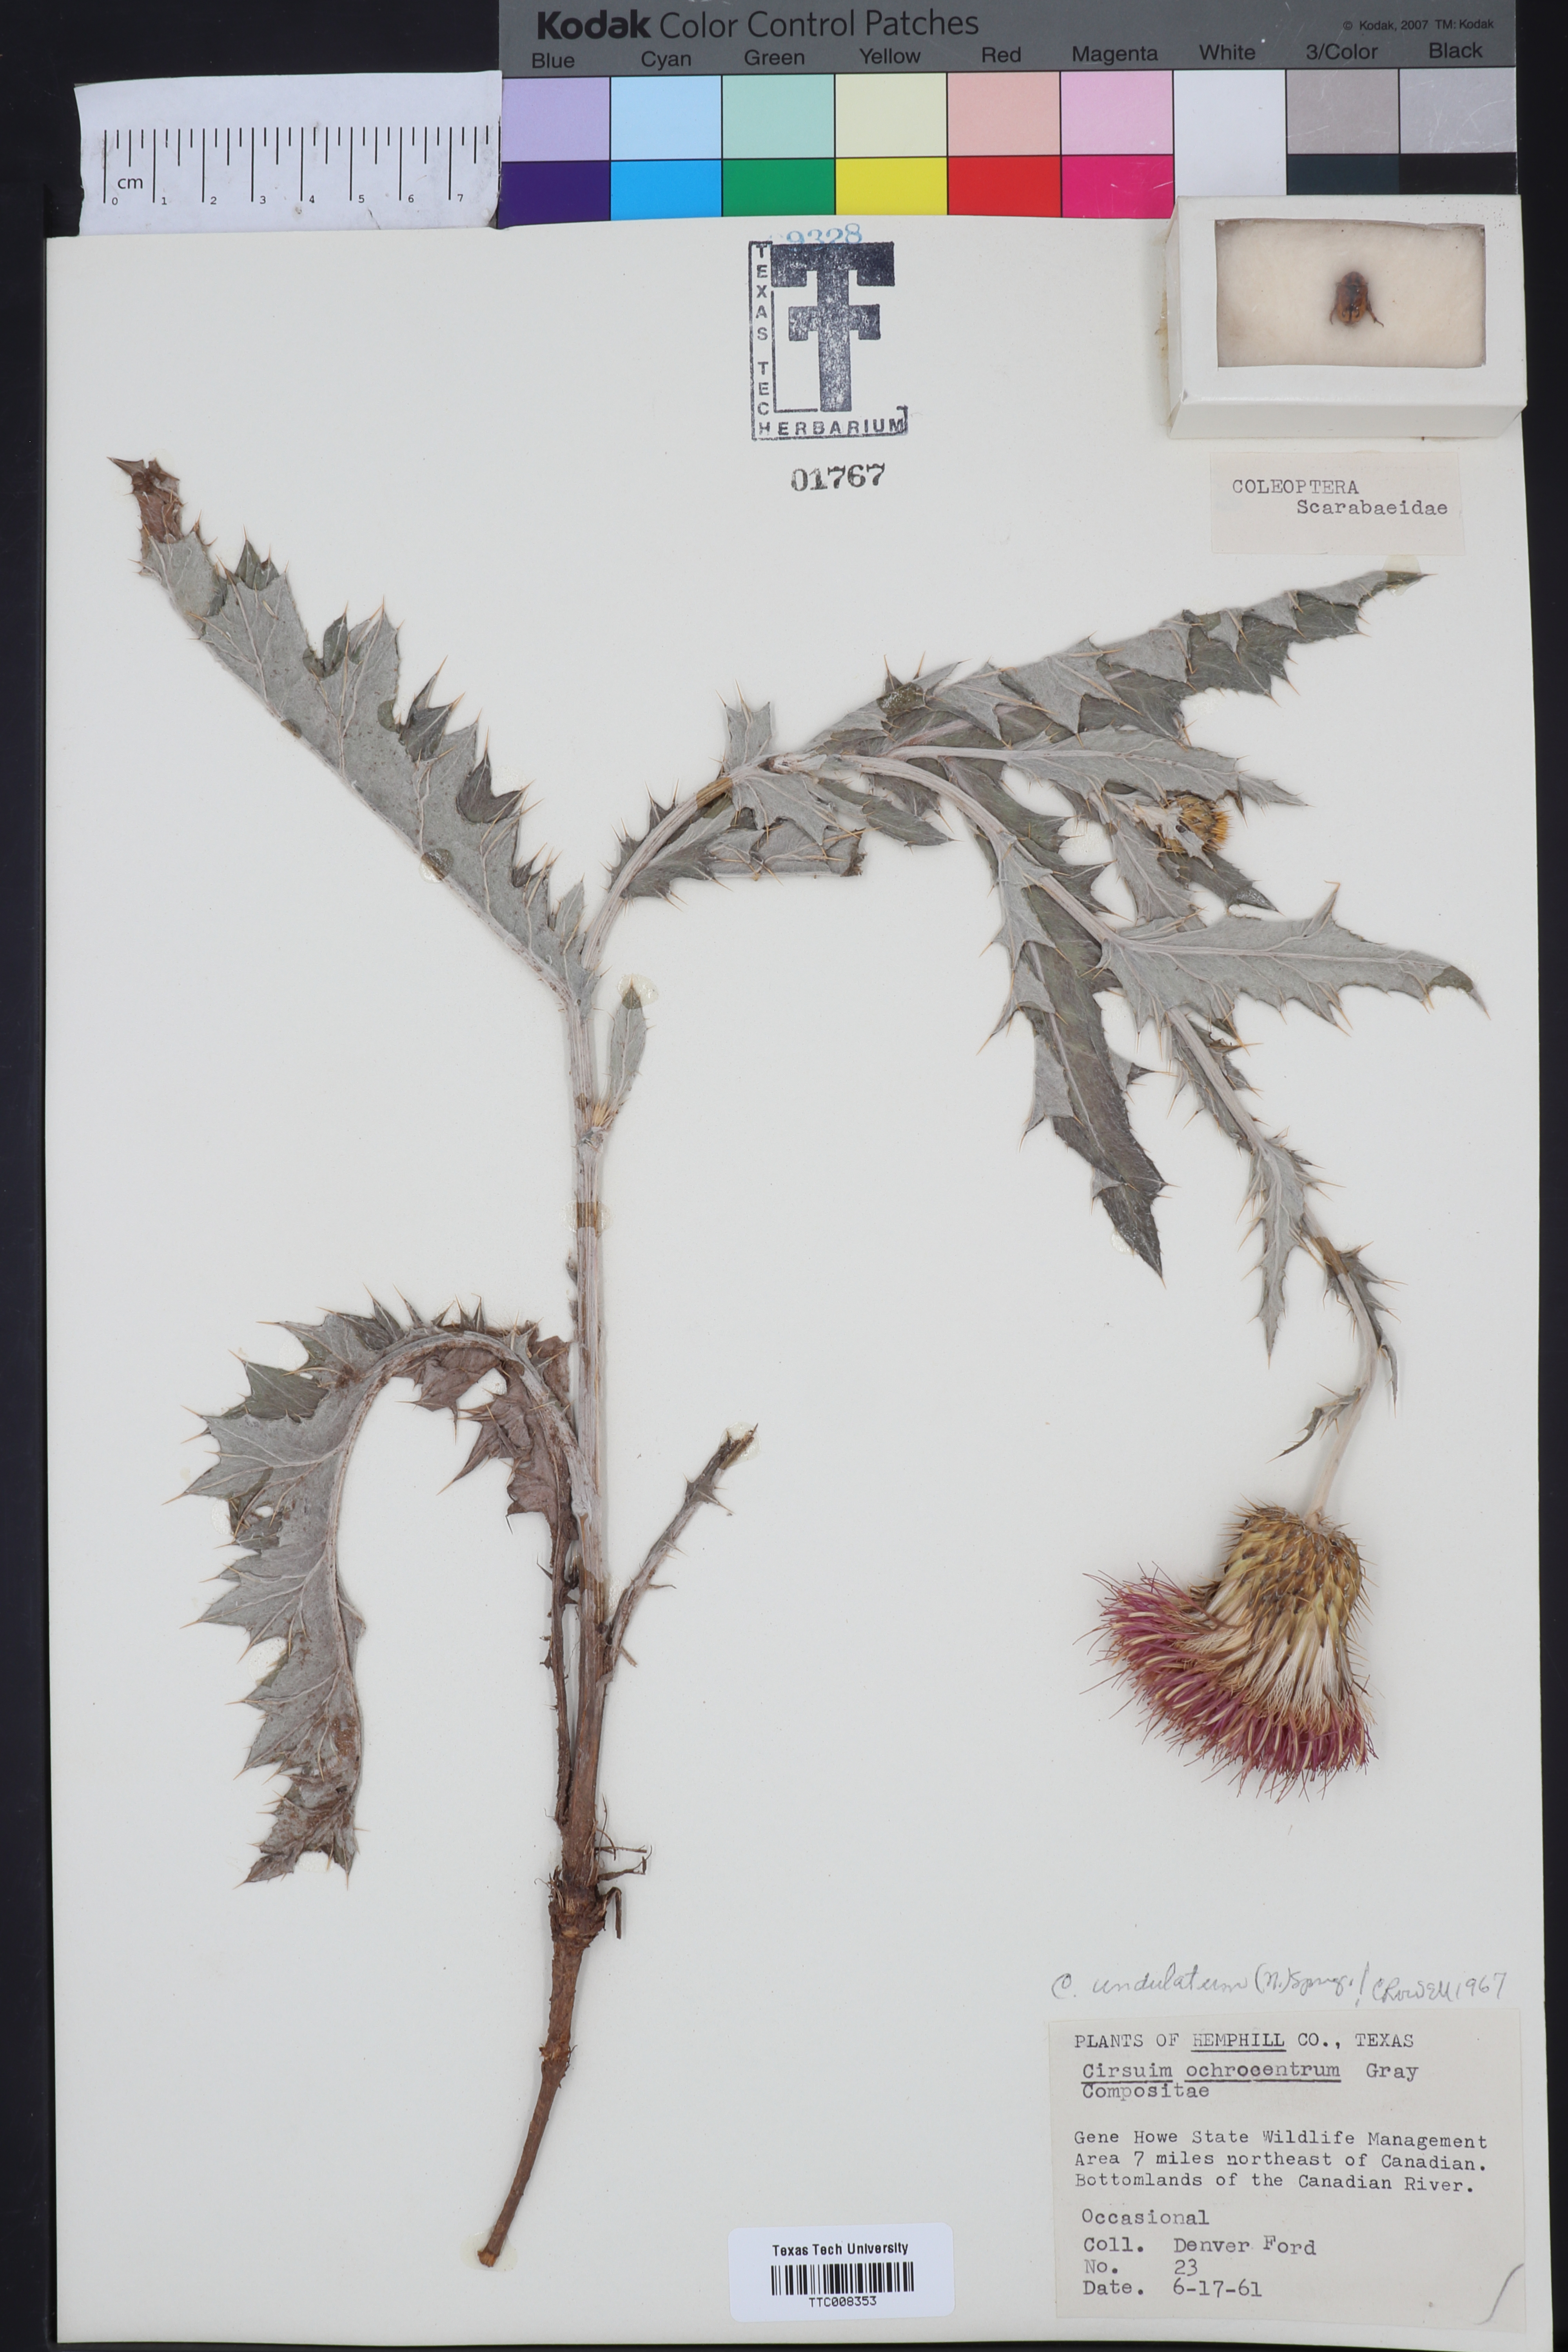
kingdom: Plantae
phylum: Tracheophyta
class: Magnoliopsida
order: Asterales
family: Asteraceae
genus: Cirsium
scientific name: Cirsium undulatum
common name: Pasture thistle
